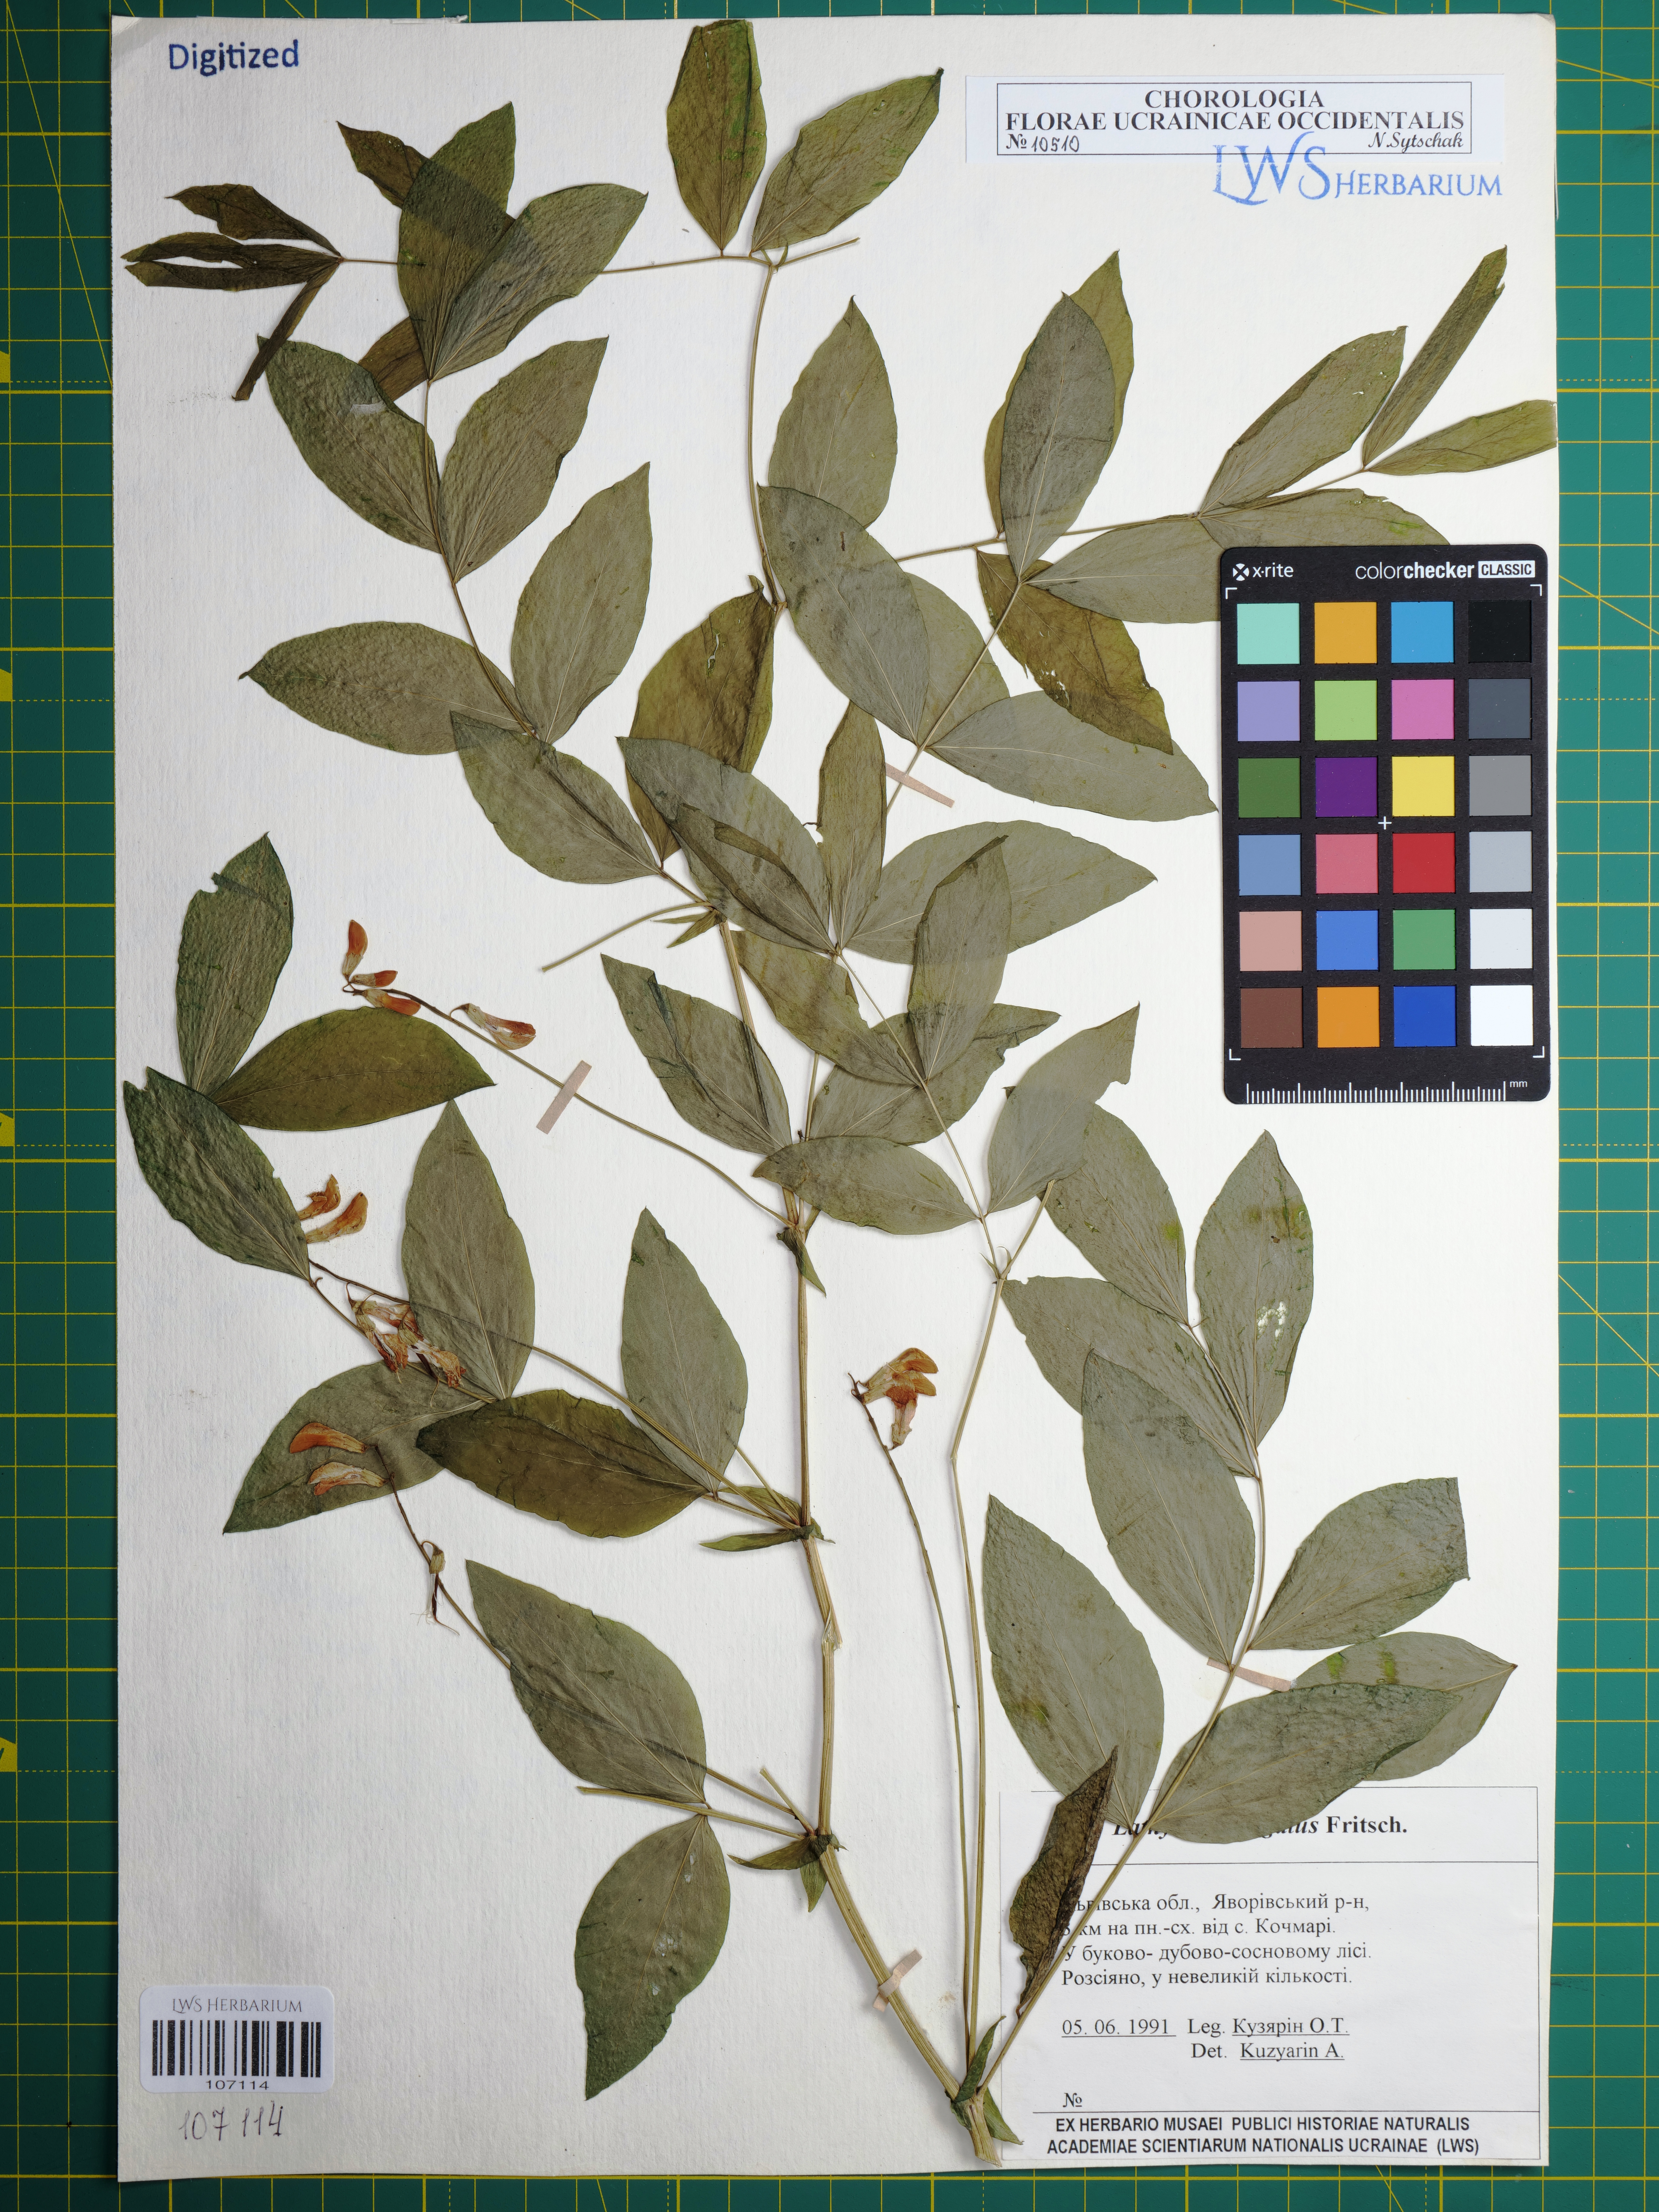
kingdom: Plantae
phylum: Tracheophyta
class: Magnoliopsida
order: Fabales
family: Fabaceae
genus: Lathyrus
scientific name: Lathyrus laevigatus
